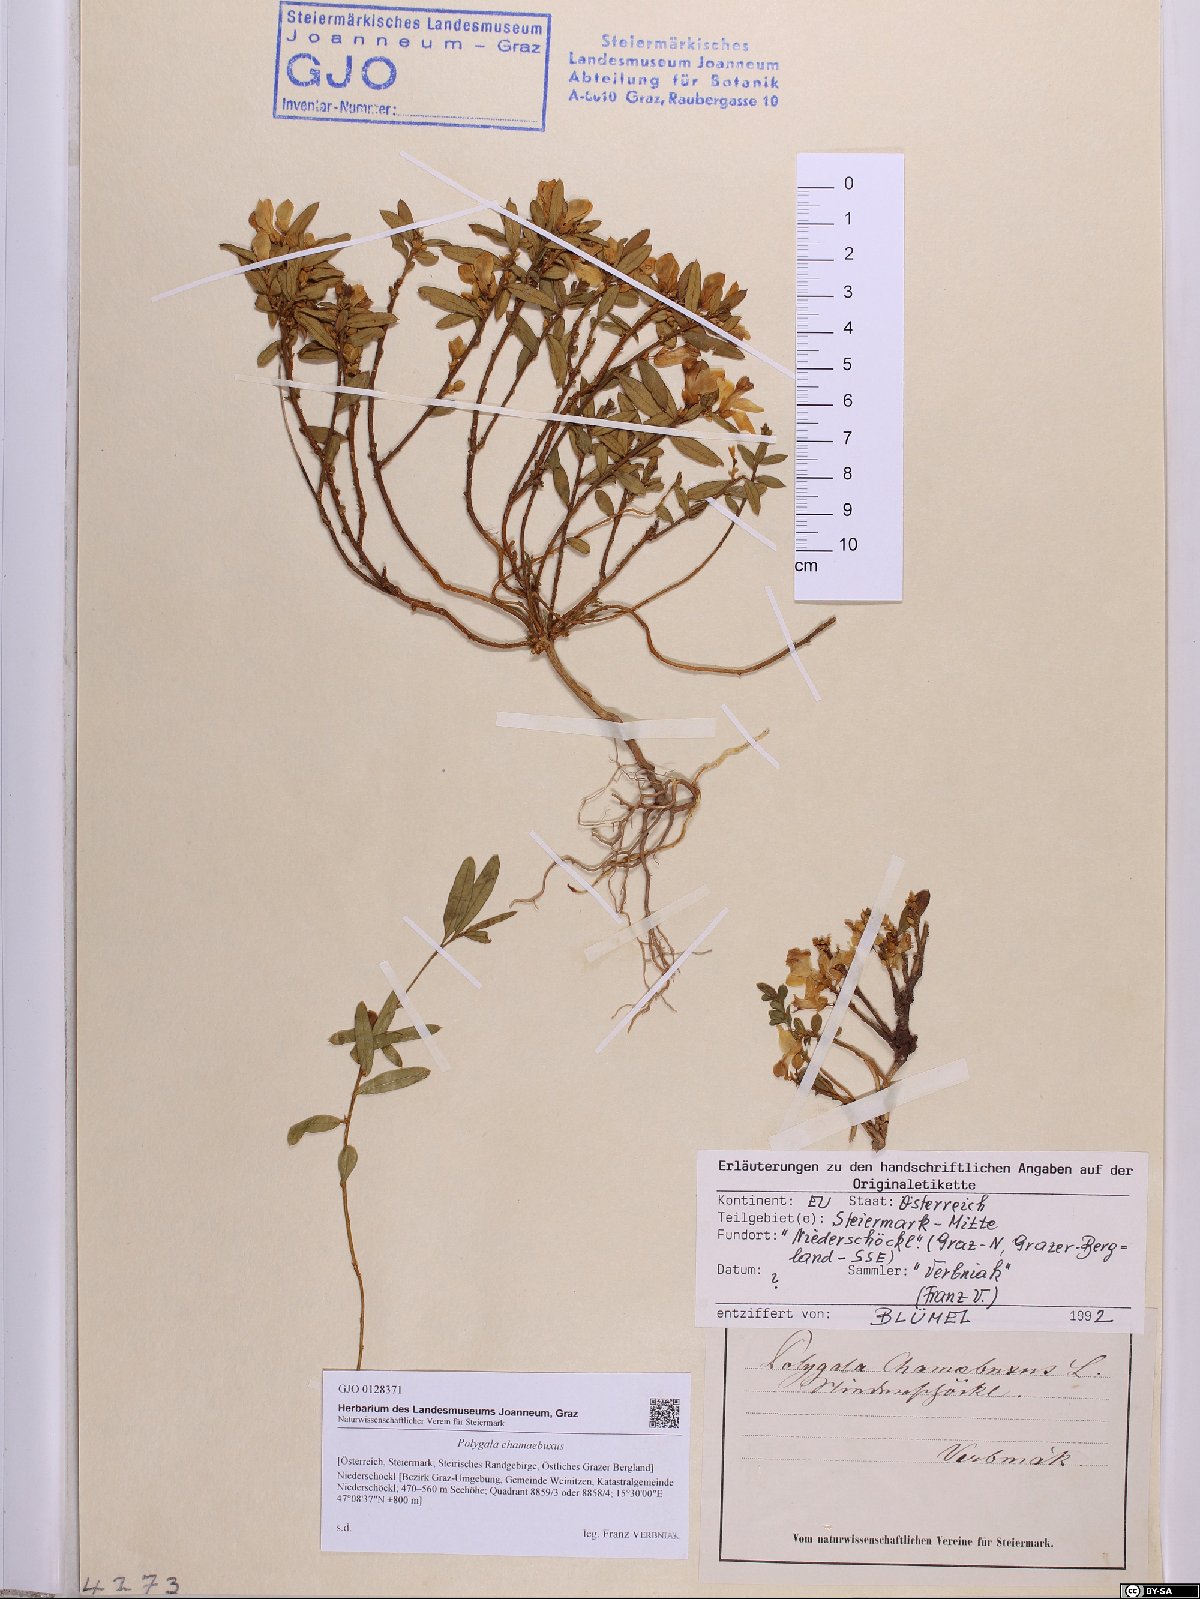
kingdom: Plantae
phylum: Tracheophyta
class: Magnoliopsida
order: Fabales
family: Polygalaceae
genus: Polygaloides
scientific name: Polygaloides chamaebuxus
